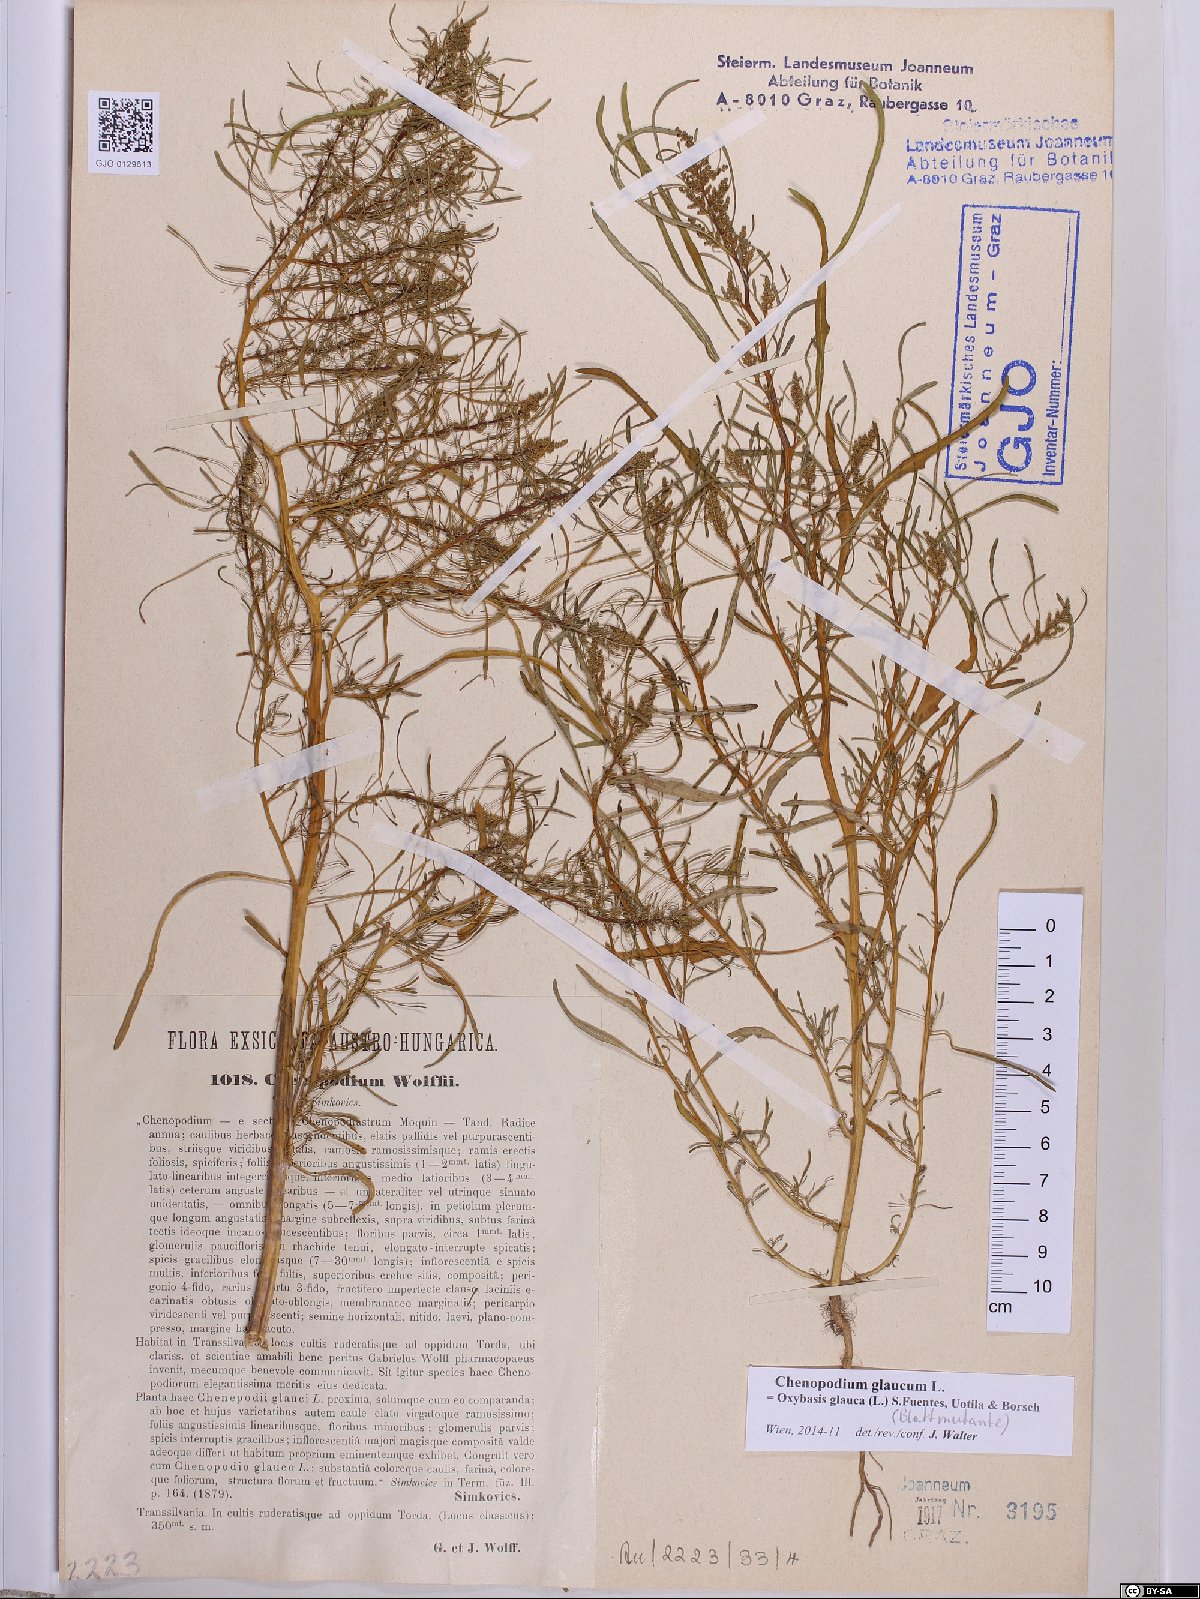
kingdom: Plantae
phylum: Tracheophyta
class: Magnoliopsida
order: Caryophyllales
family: Amaranthaceae
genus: Oxybasis
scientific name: Oxybasis glauca
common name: Glaucous goosefoot
